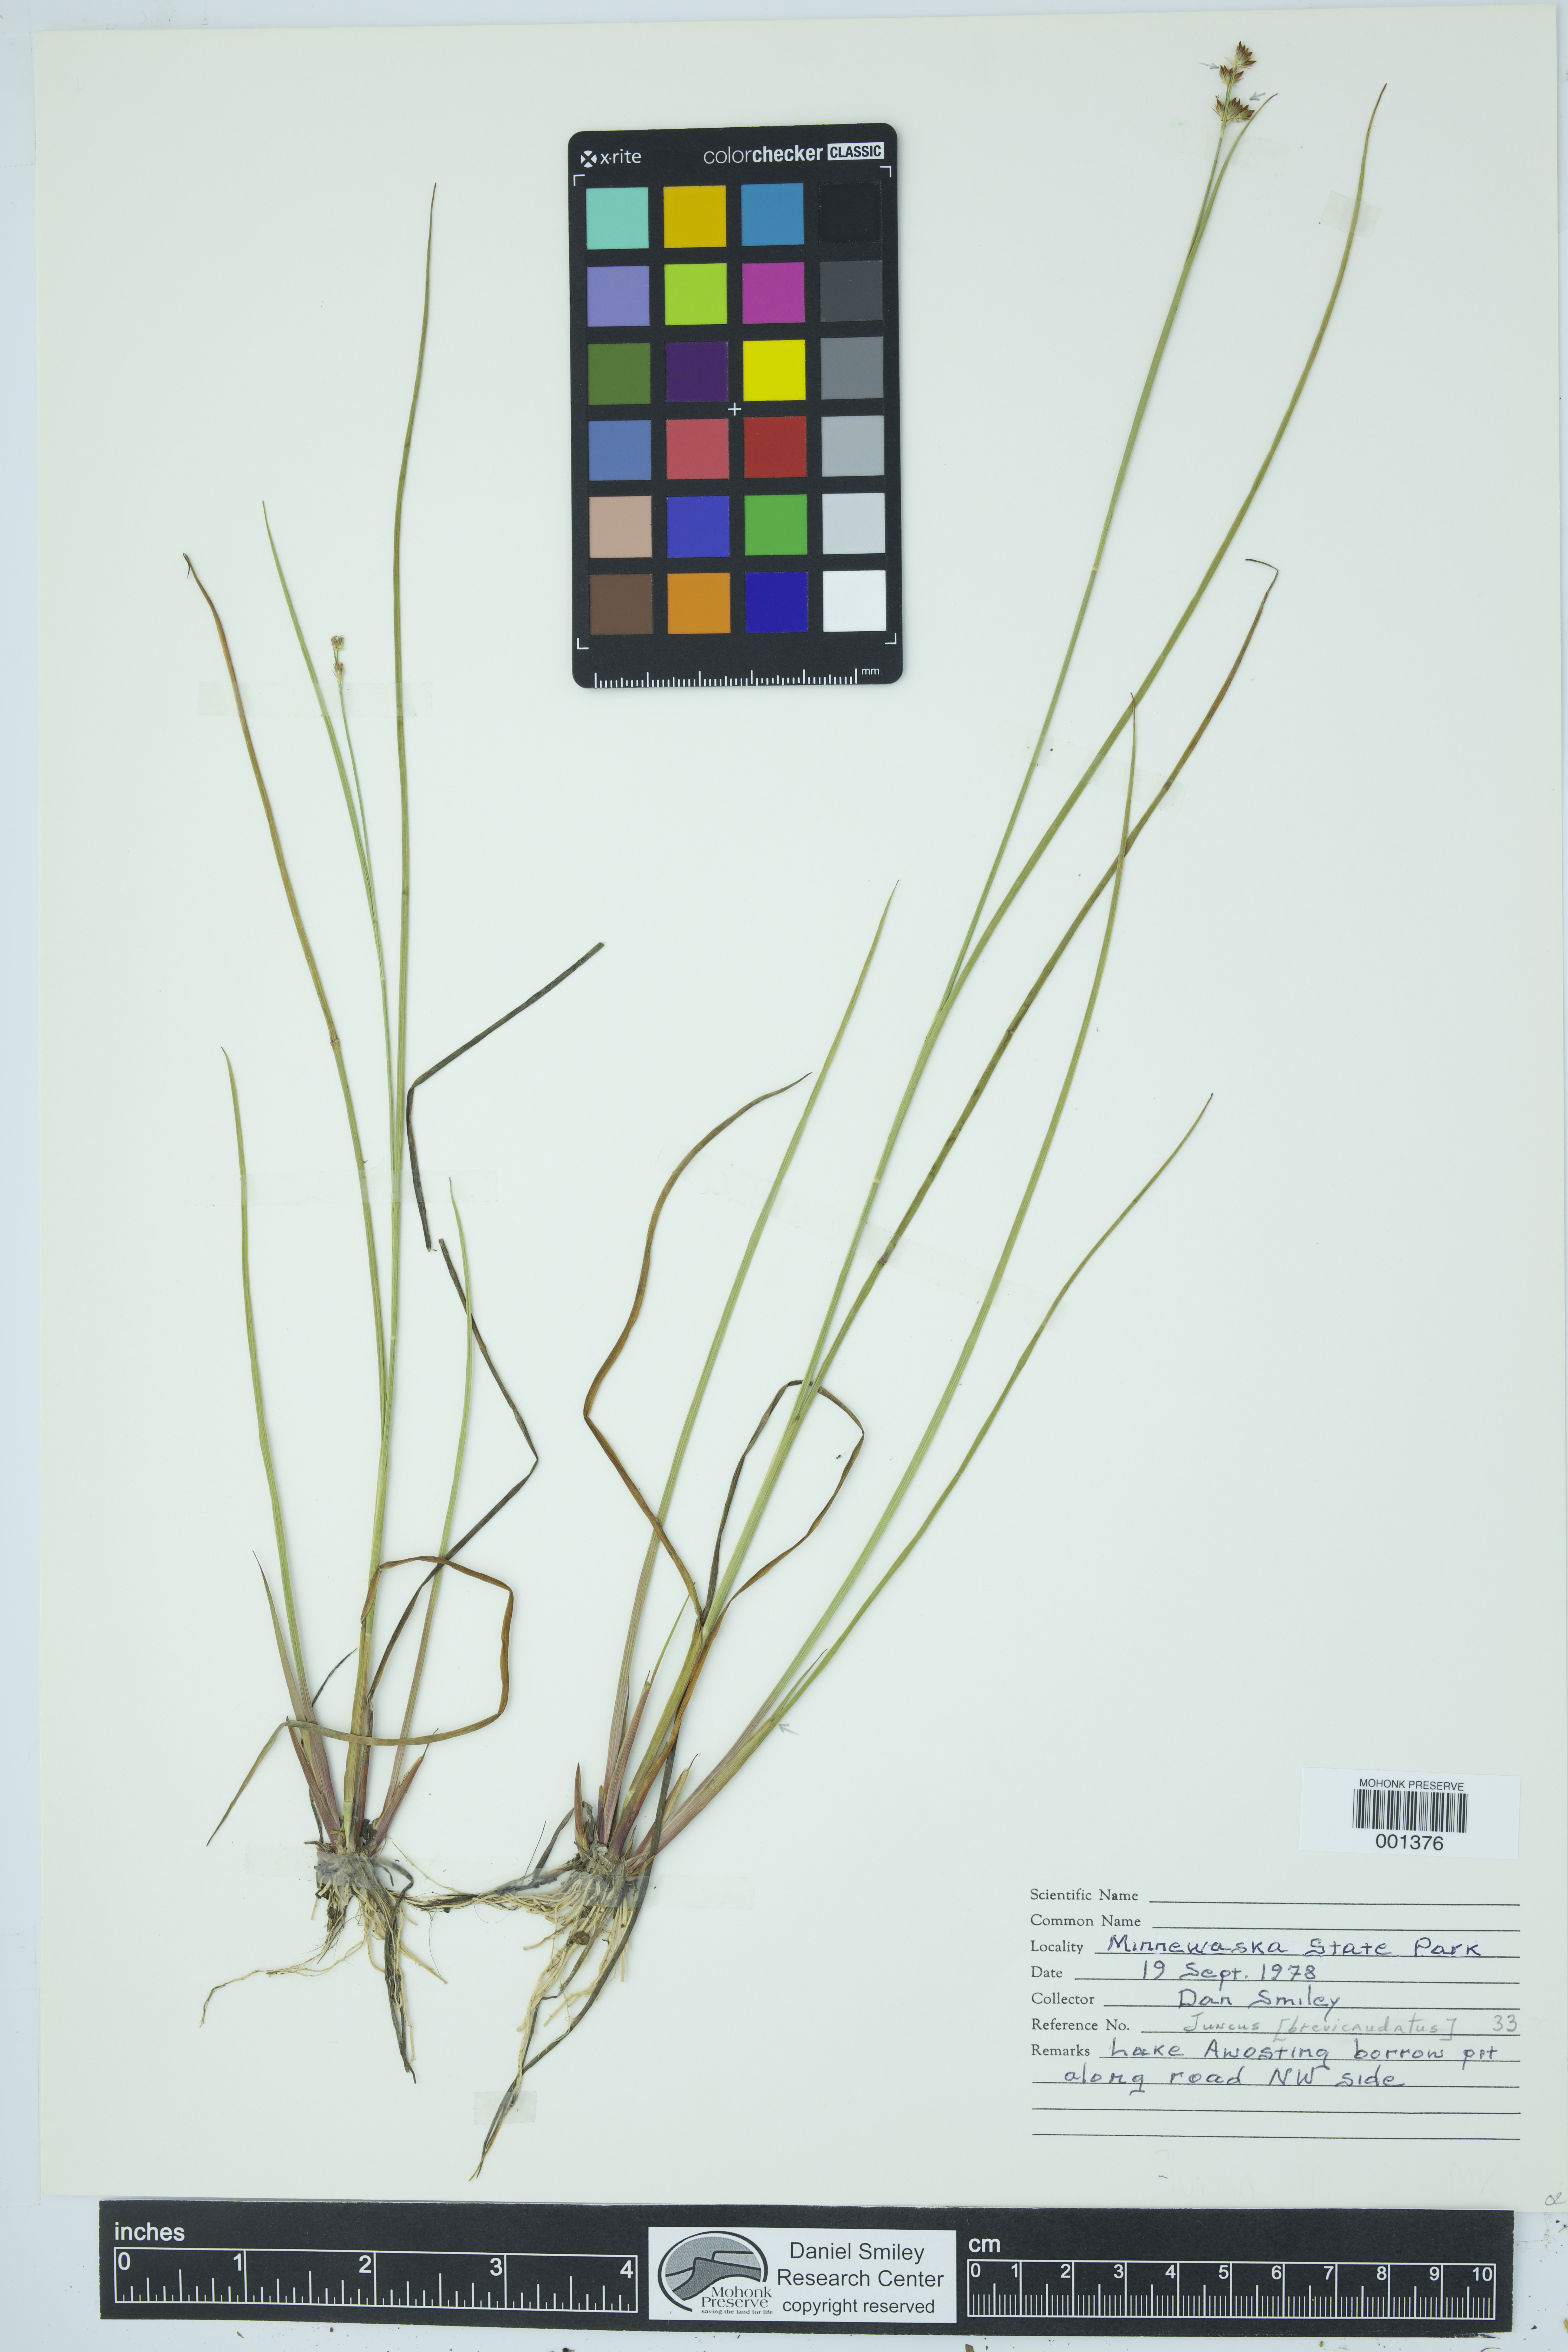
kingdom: Plantae
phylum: Tracheophyta
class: Liliopsida
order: Poales
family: Juncaceae
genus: Juncus
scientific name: Juncus brevicaudatus
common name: Narrow-panicle rush
